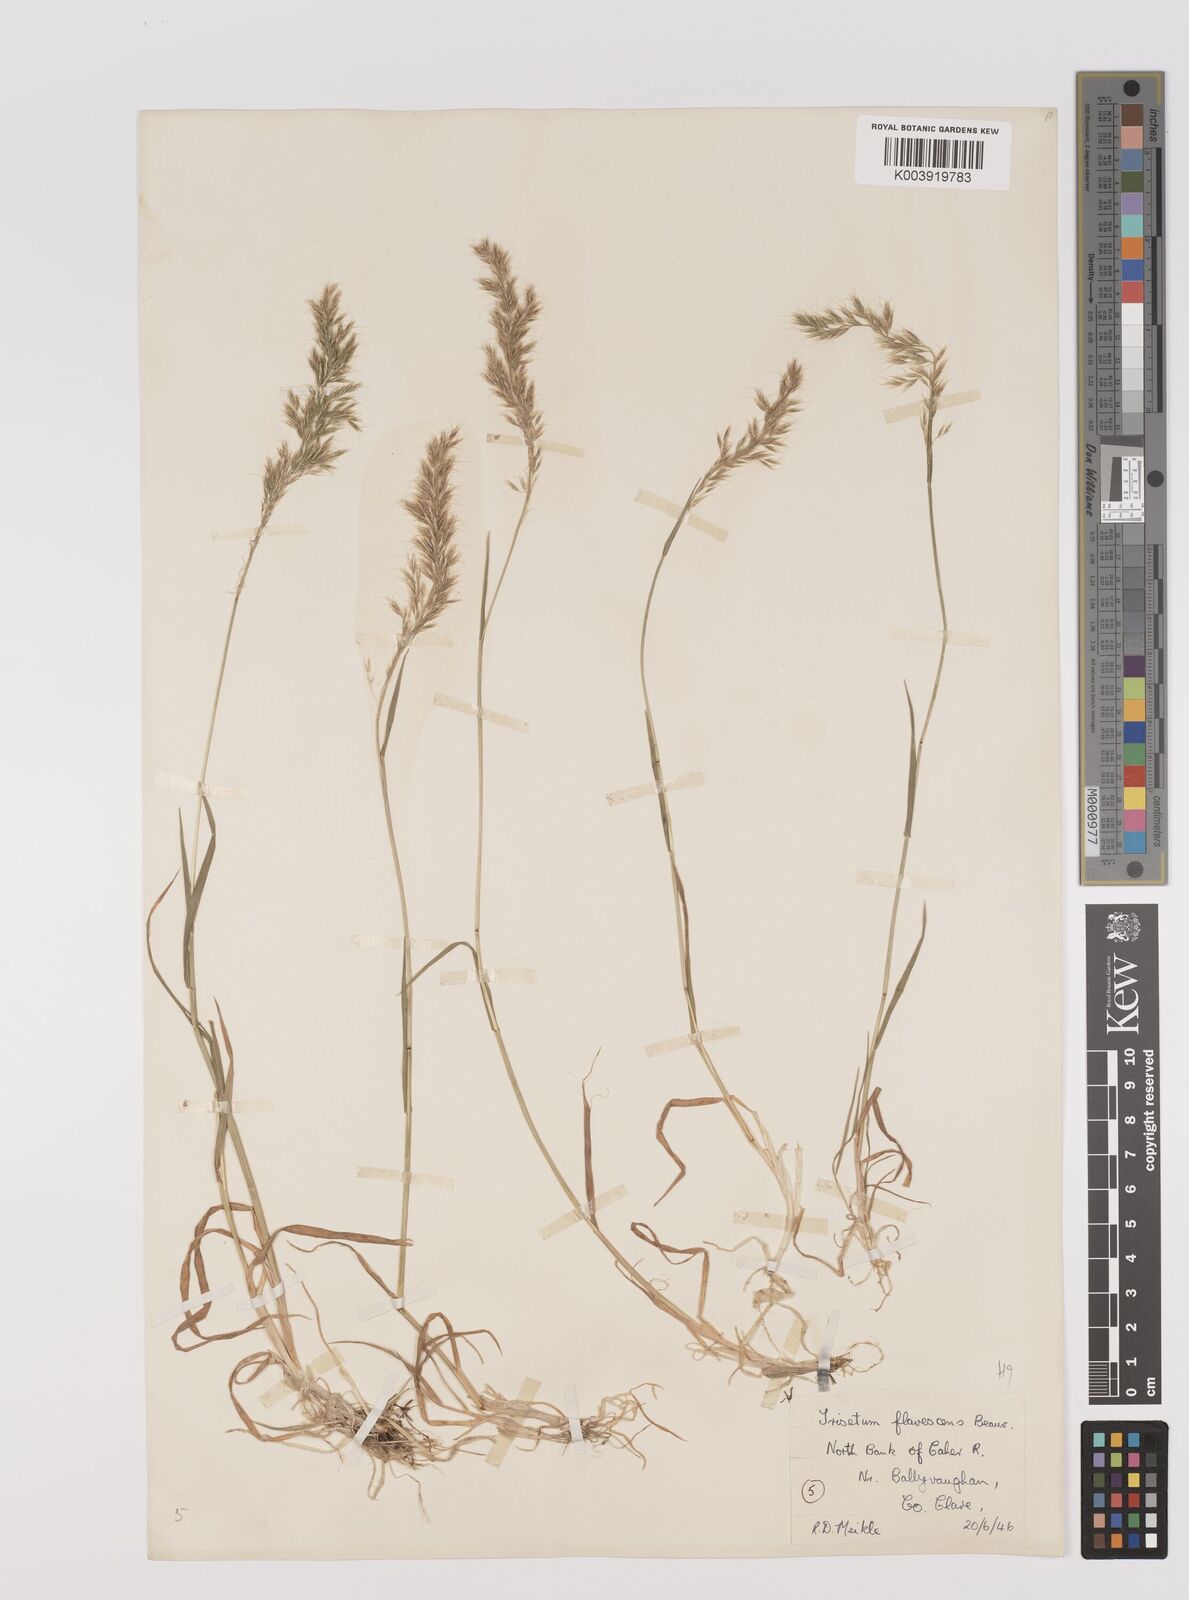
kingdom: Plantae
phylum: Tracheophyta
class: Liliopsida
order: Poales
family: Poaceae
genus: Trisetum
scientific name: Trisetum flavescens
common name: Yellow oat-grass
